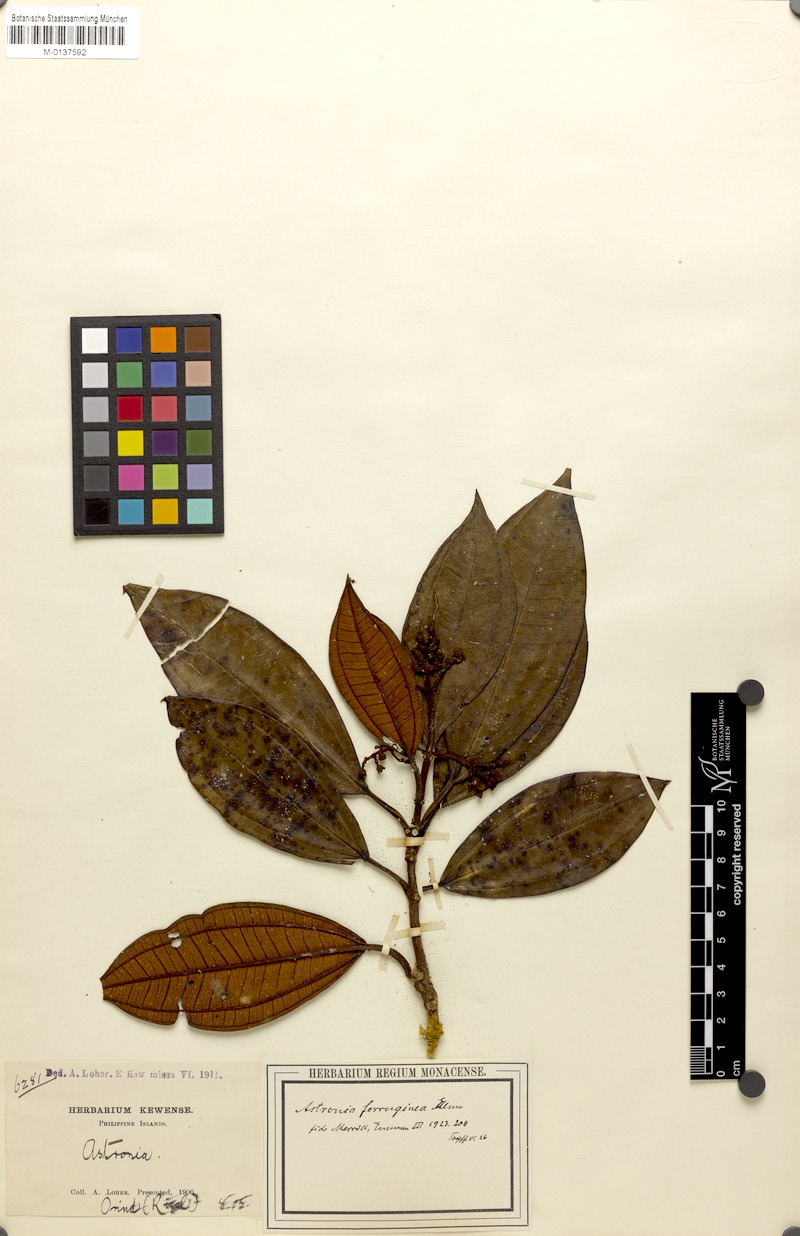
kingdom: Plantae
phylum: Tracheophyta
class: Magnoliopsida
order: Myrtales
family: Melastomataceae
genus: Astronia
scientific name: Astronia ferruginea
